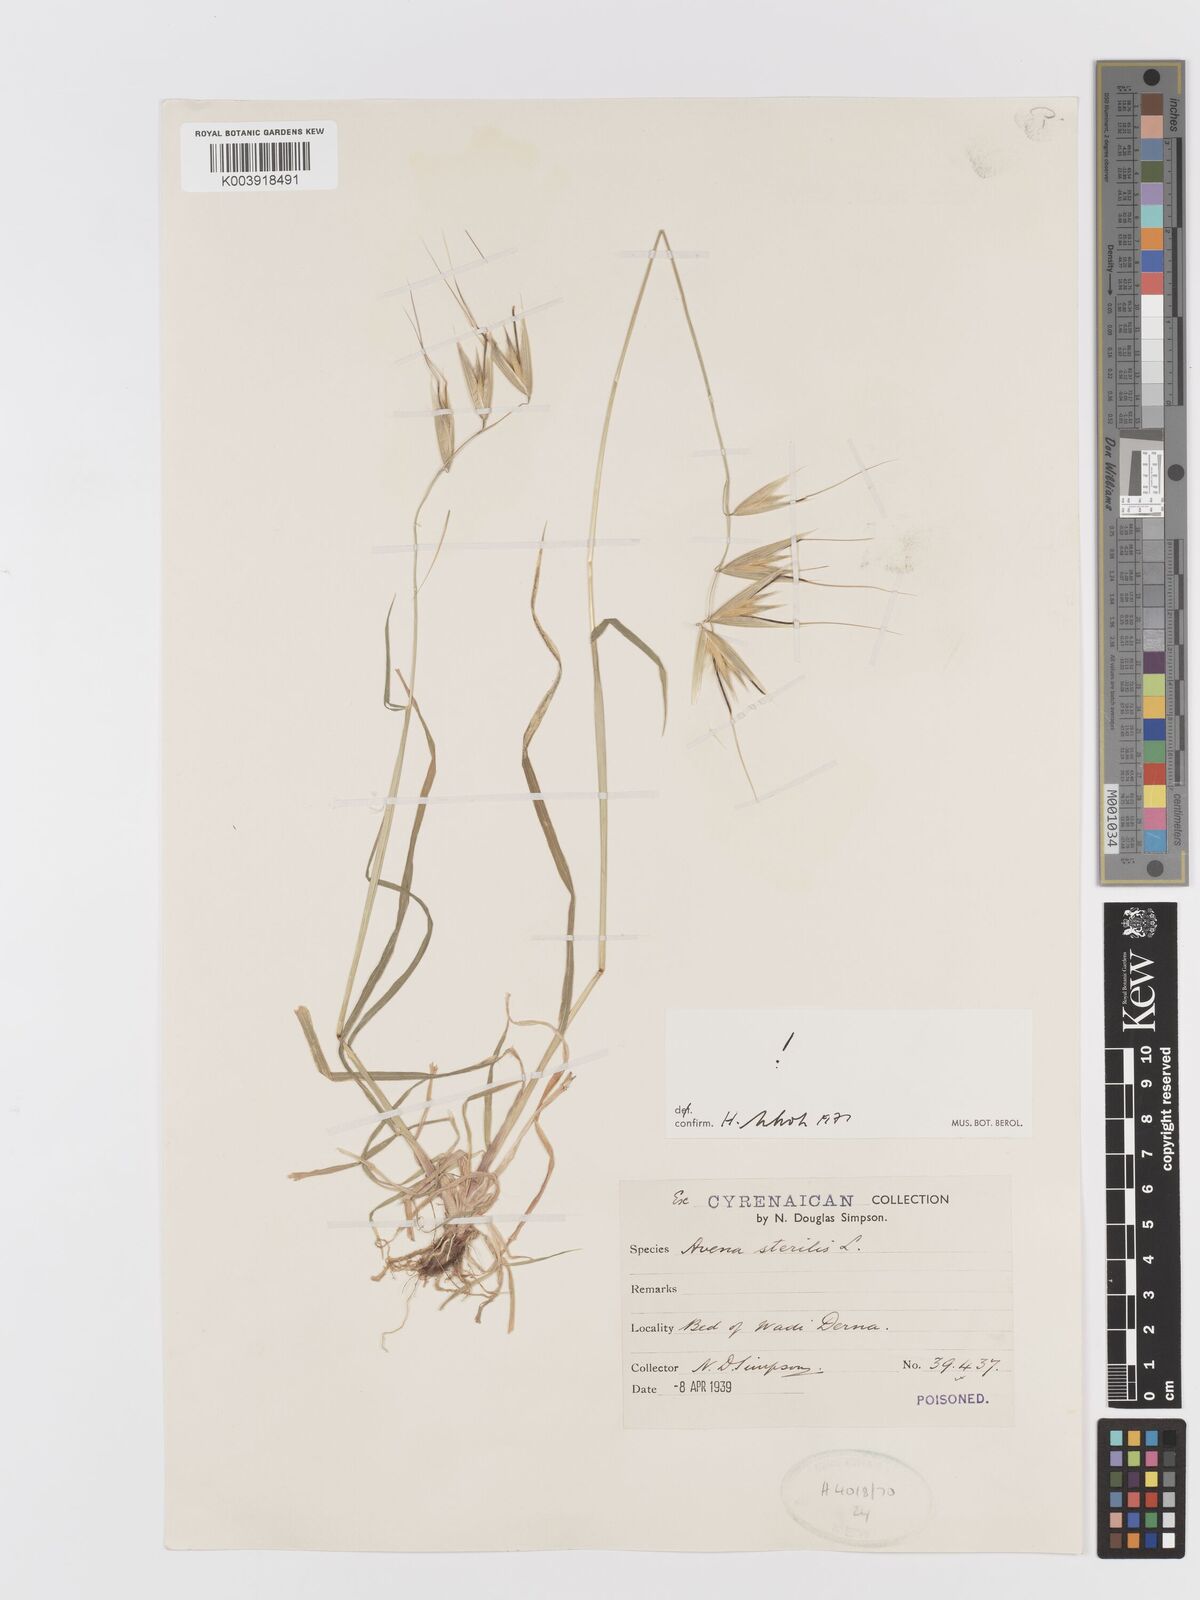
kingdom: Plantae
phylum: Tracheophyta
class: Liliopsida
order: Poales
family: Poaceae
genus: Avena
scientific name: Avena sterilis
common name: Animated oat
